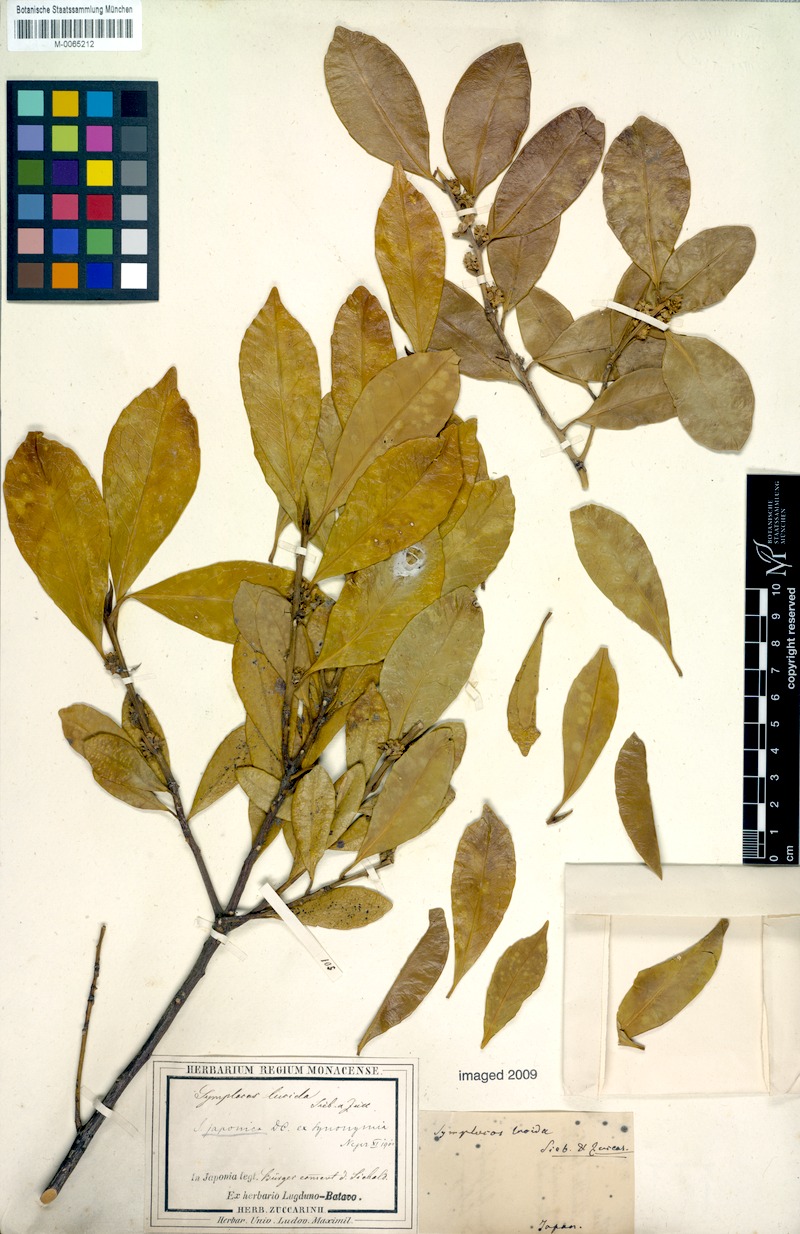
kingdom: Plantae
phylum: Tracheophyta
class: Magnoliopsida
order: Rosales
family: Rosaceae
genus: Pourthiaea
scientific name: Pourthiaea villosa
